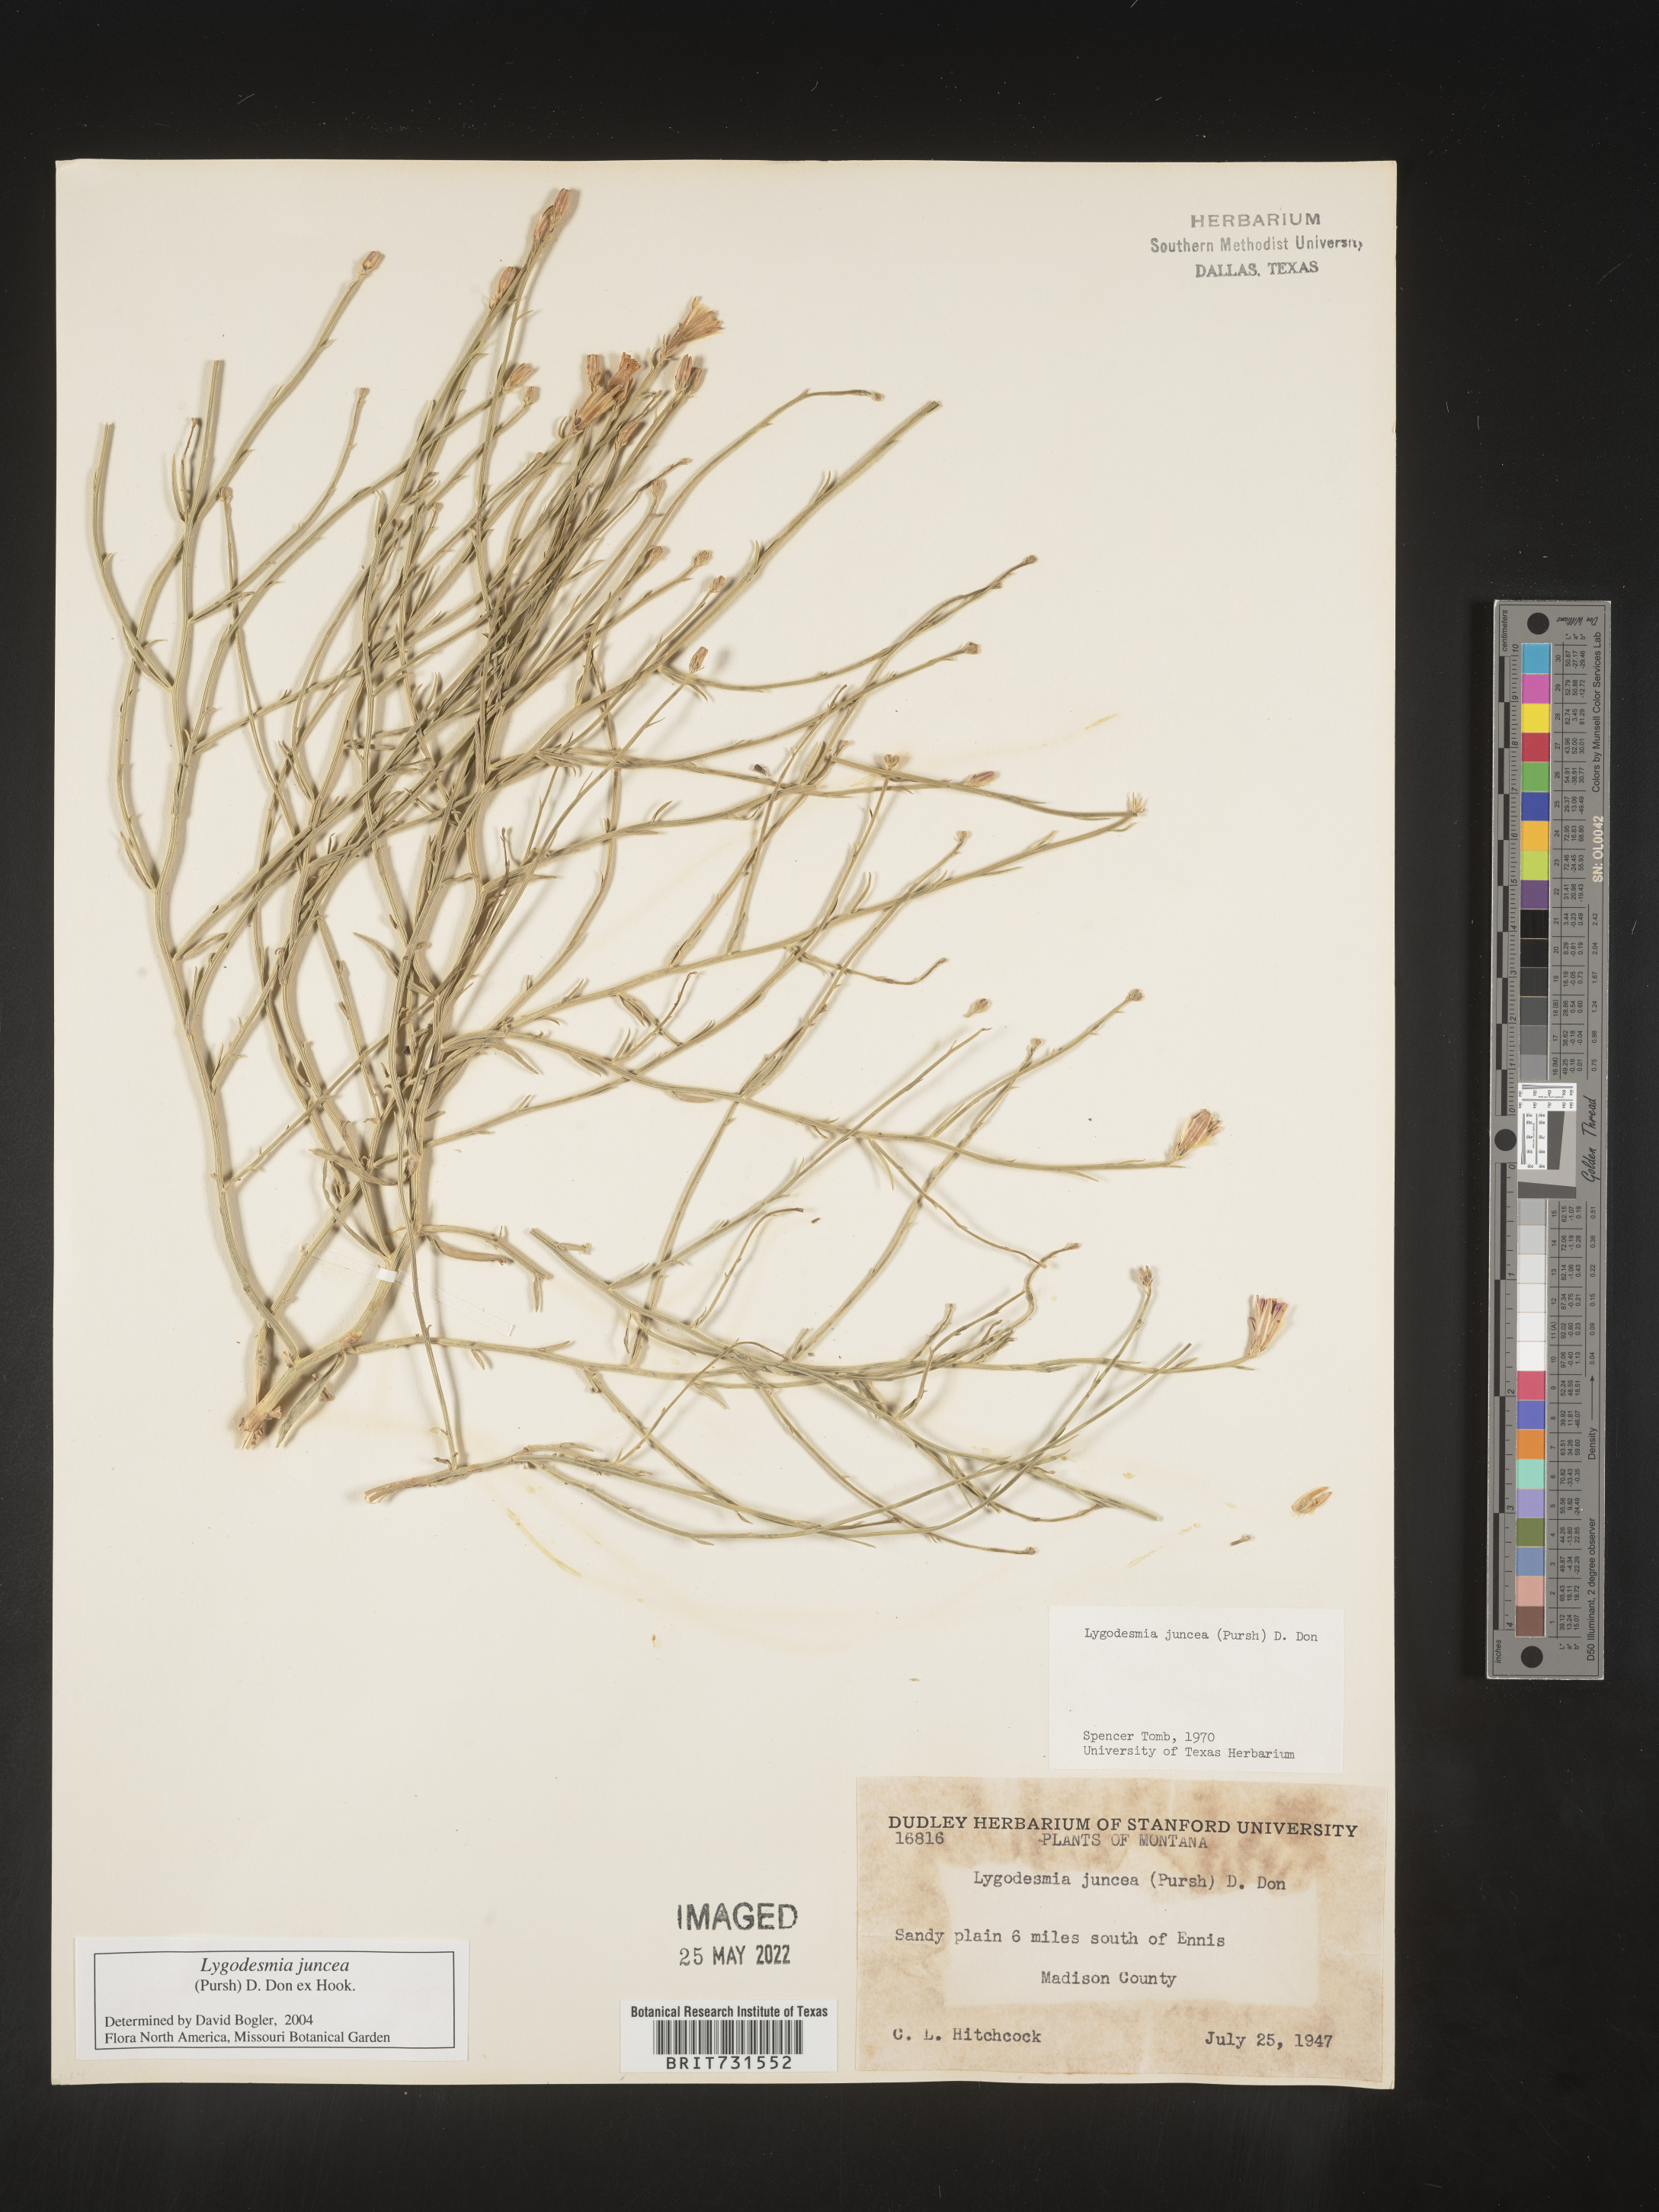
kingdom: Plantae
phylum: Tracheophyta
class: Magnoliopsida
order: Asterales
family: Asteraceae
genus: Lygodesmia
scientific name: Lygodesmia juncea
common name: Common skeletonweed
